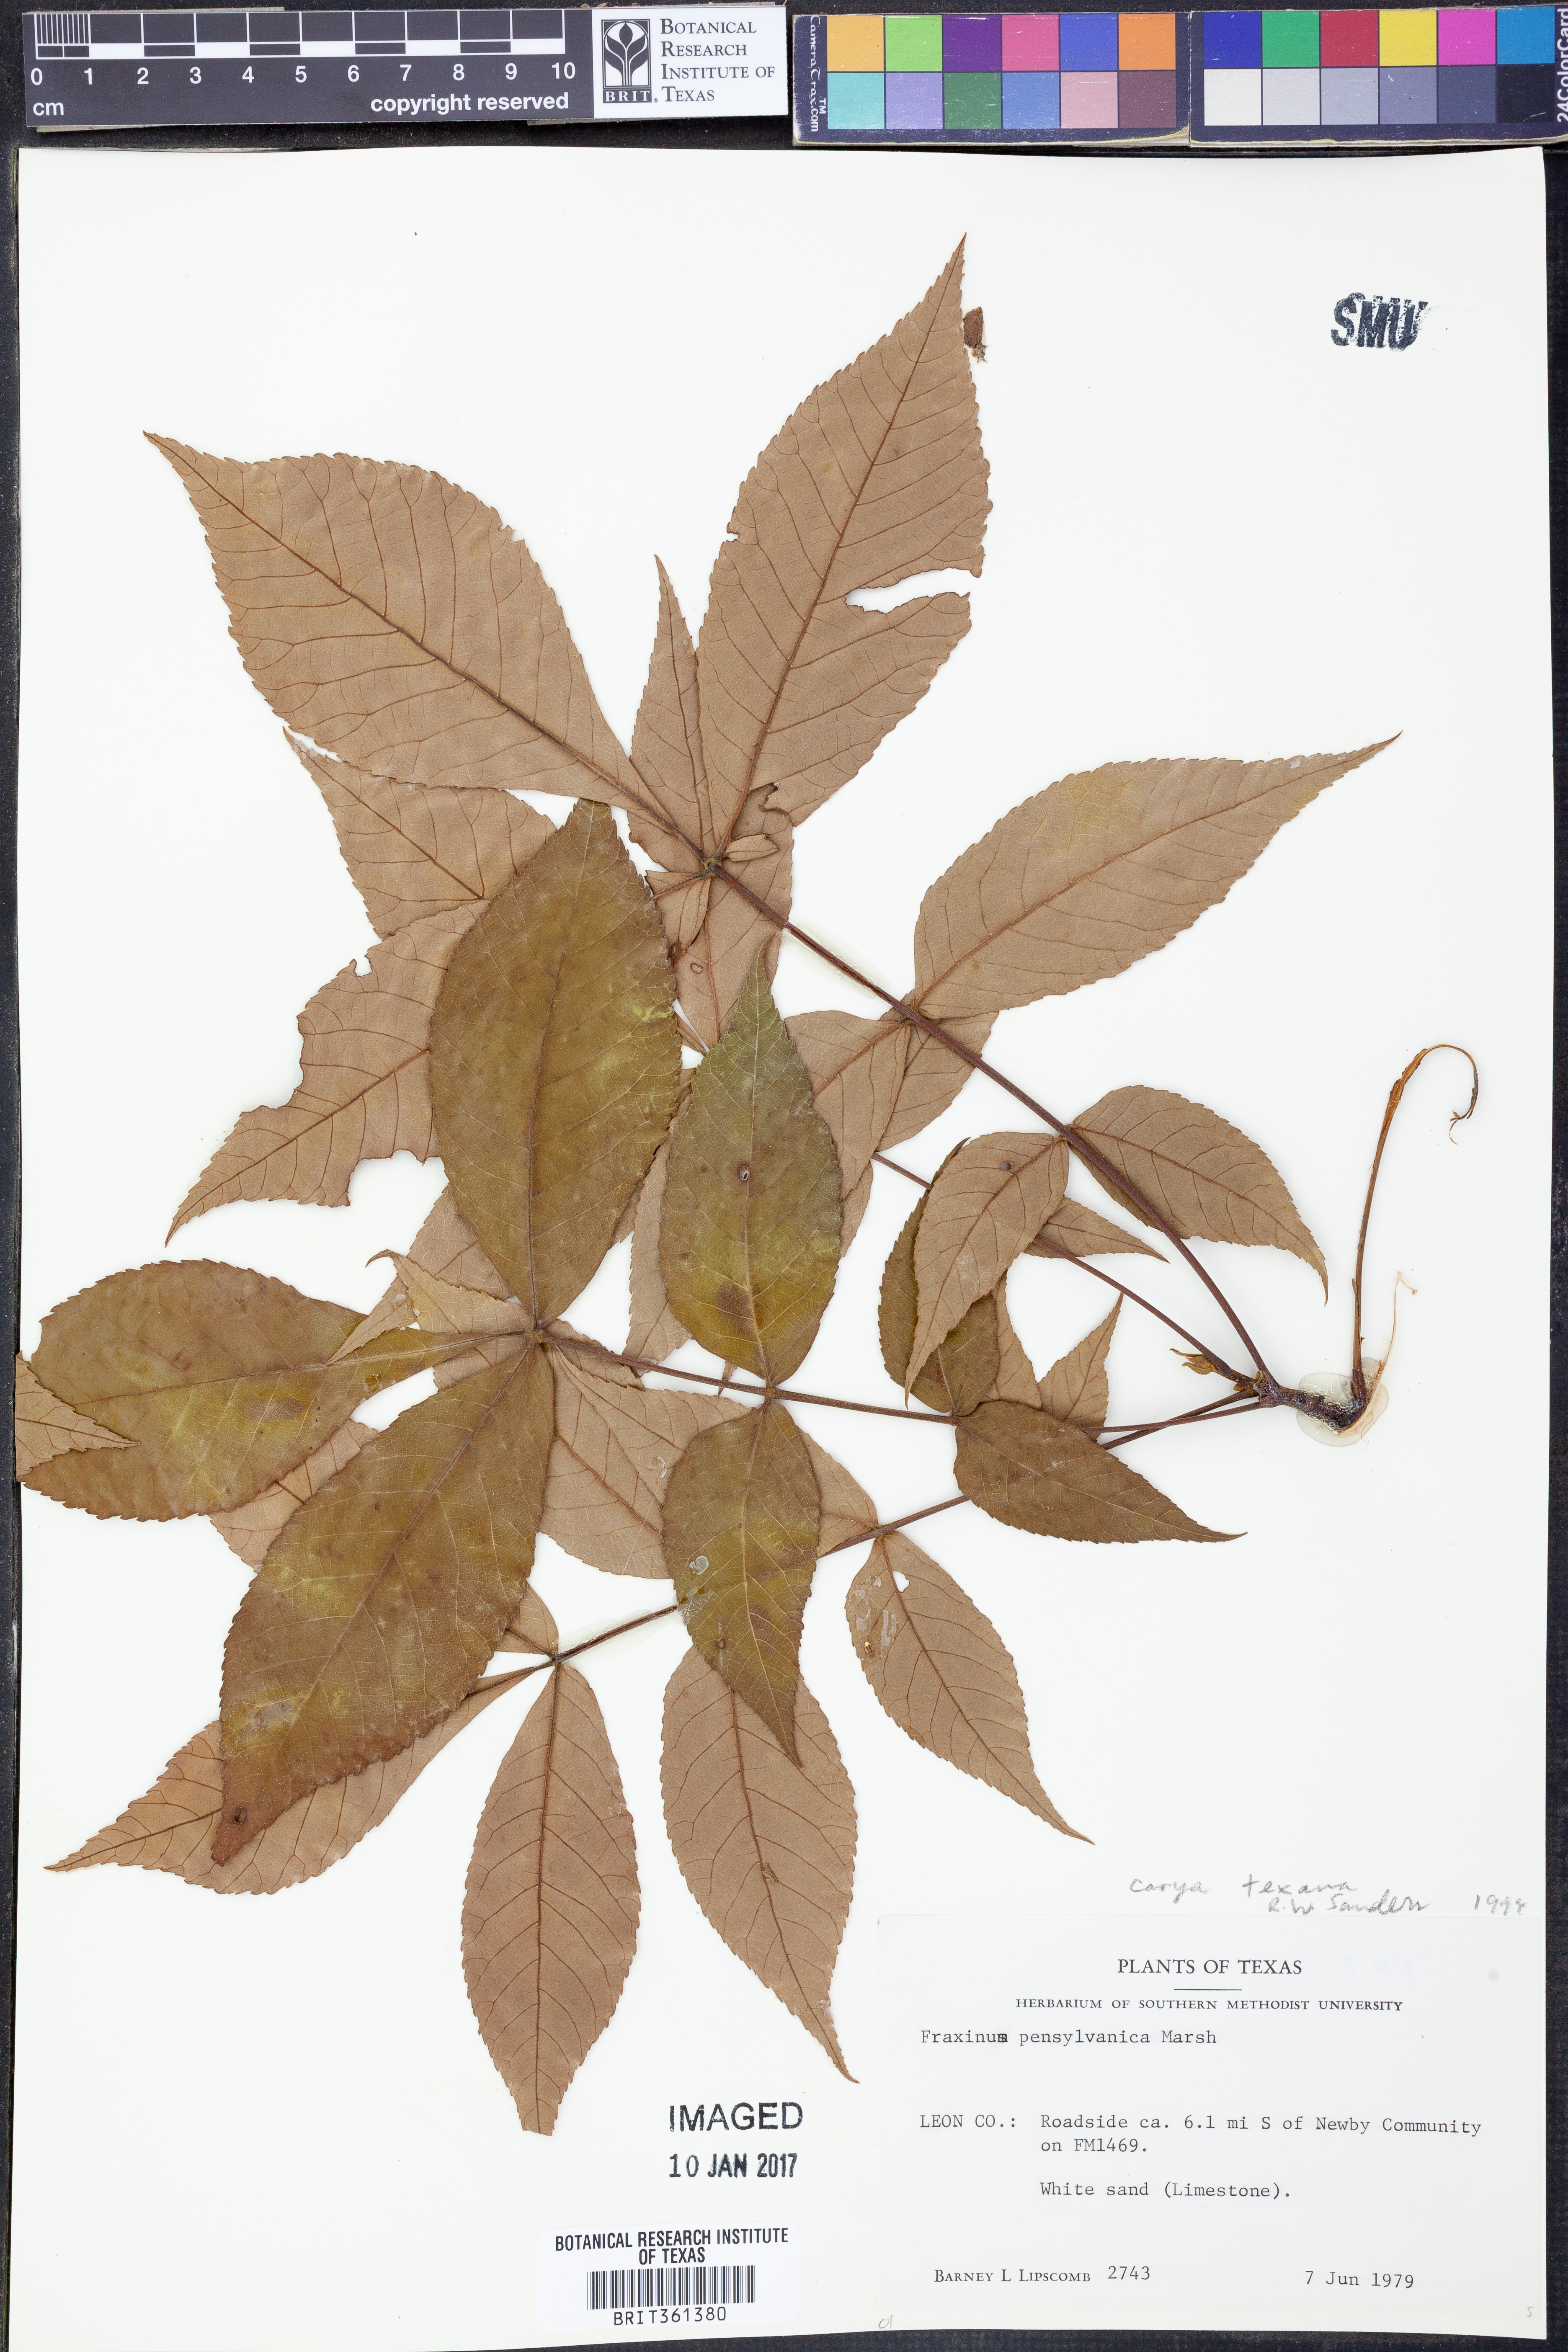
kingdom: Plantae
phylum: Tracheophyta
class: Magnoliopsida
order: Fagales
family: Juglandaceae
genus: Carya
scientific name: Carya texana
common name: Black hickory
